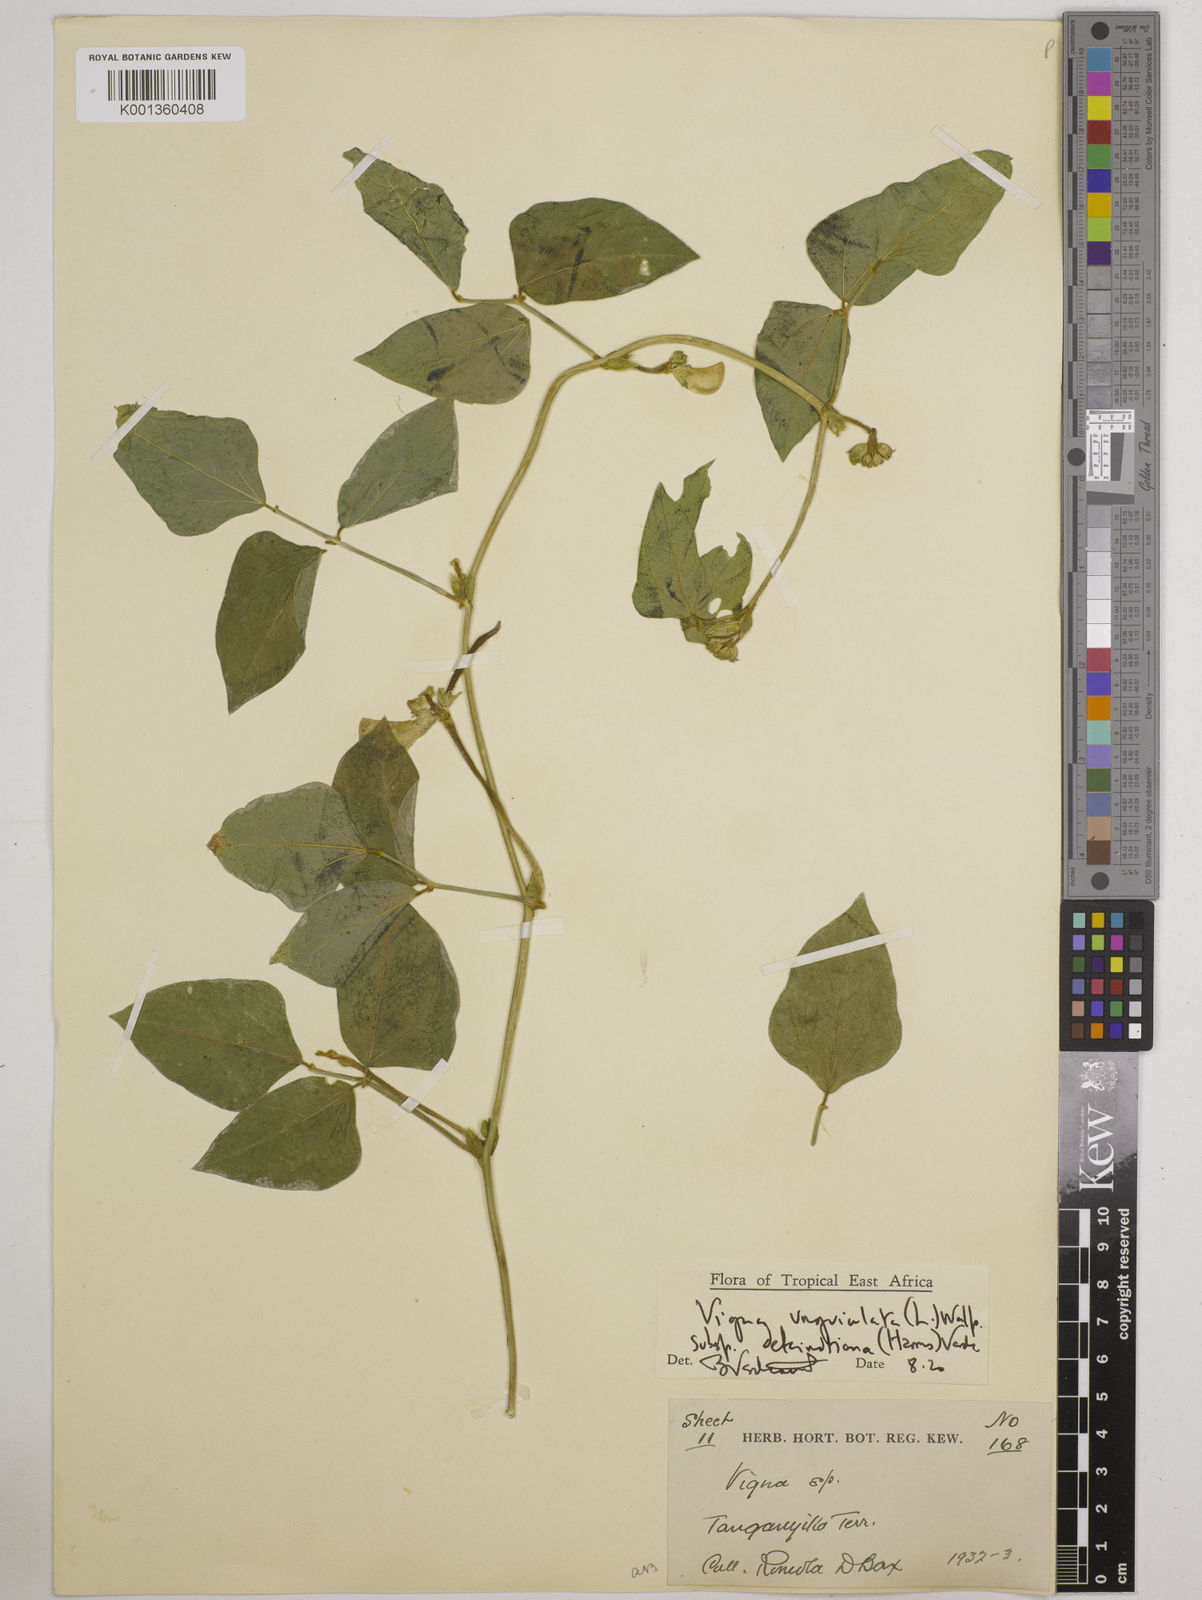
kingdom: Plantae
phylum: Tracheophyta
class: Magnoliopsida
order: Fabales
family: Fabaceae
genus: Vigna
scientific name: Vigna
